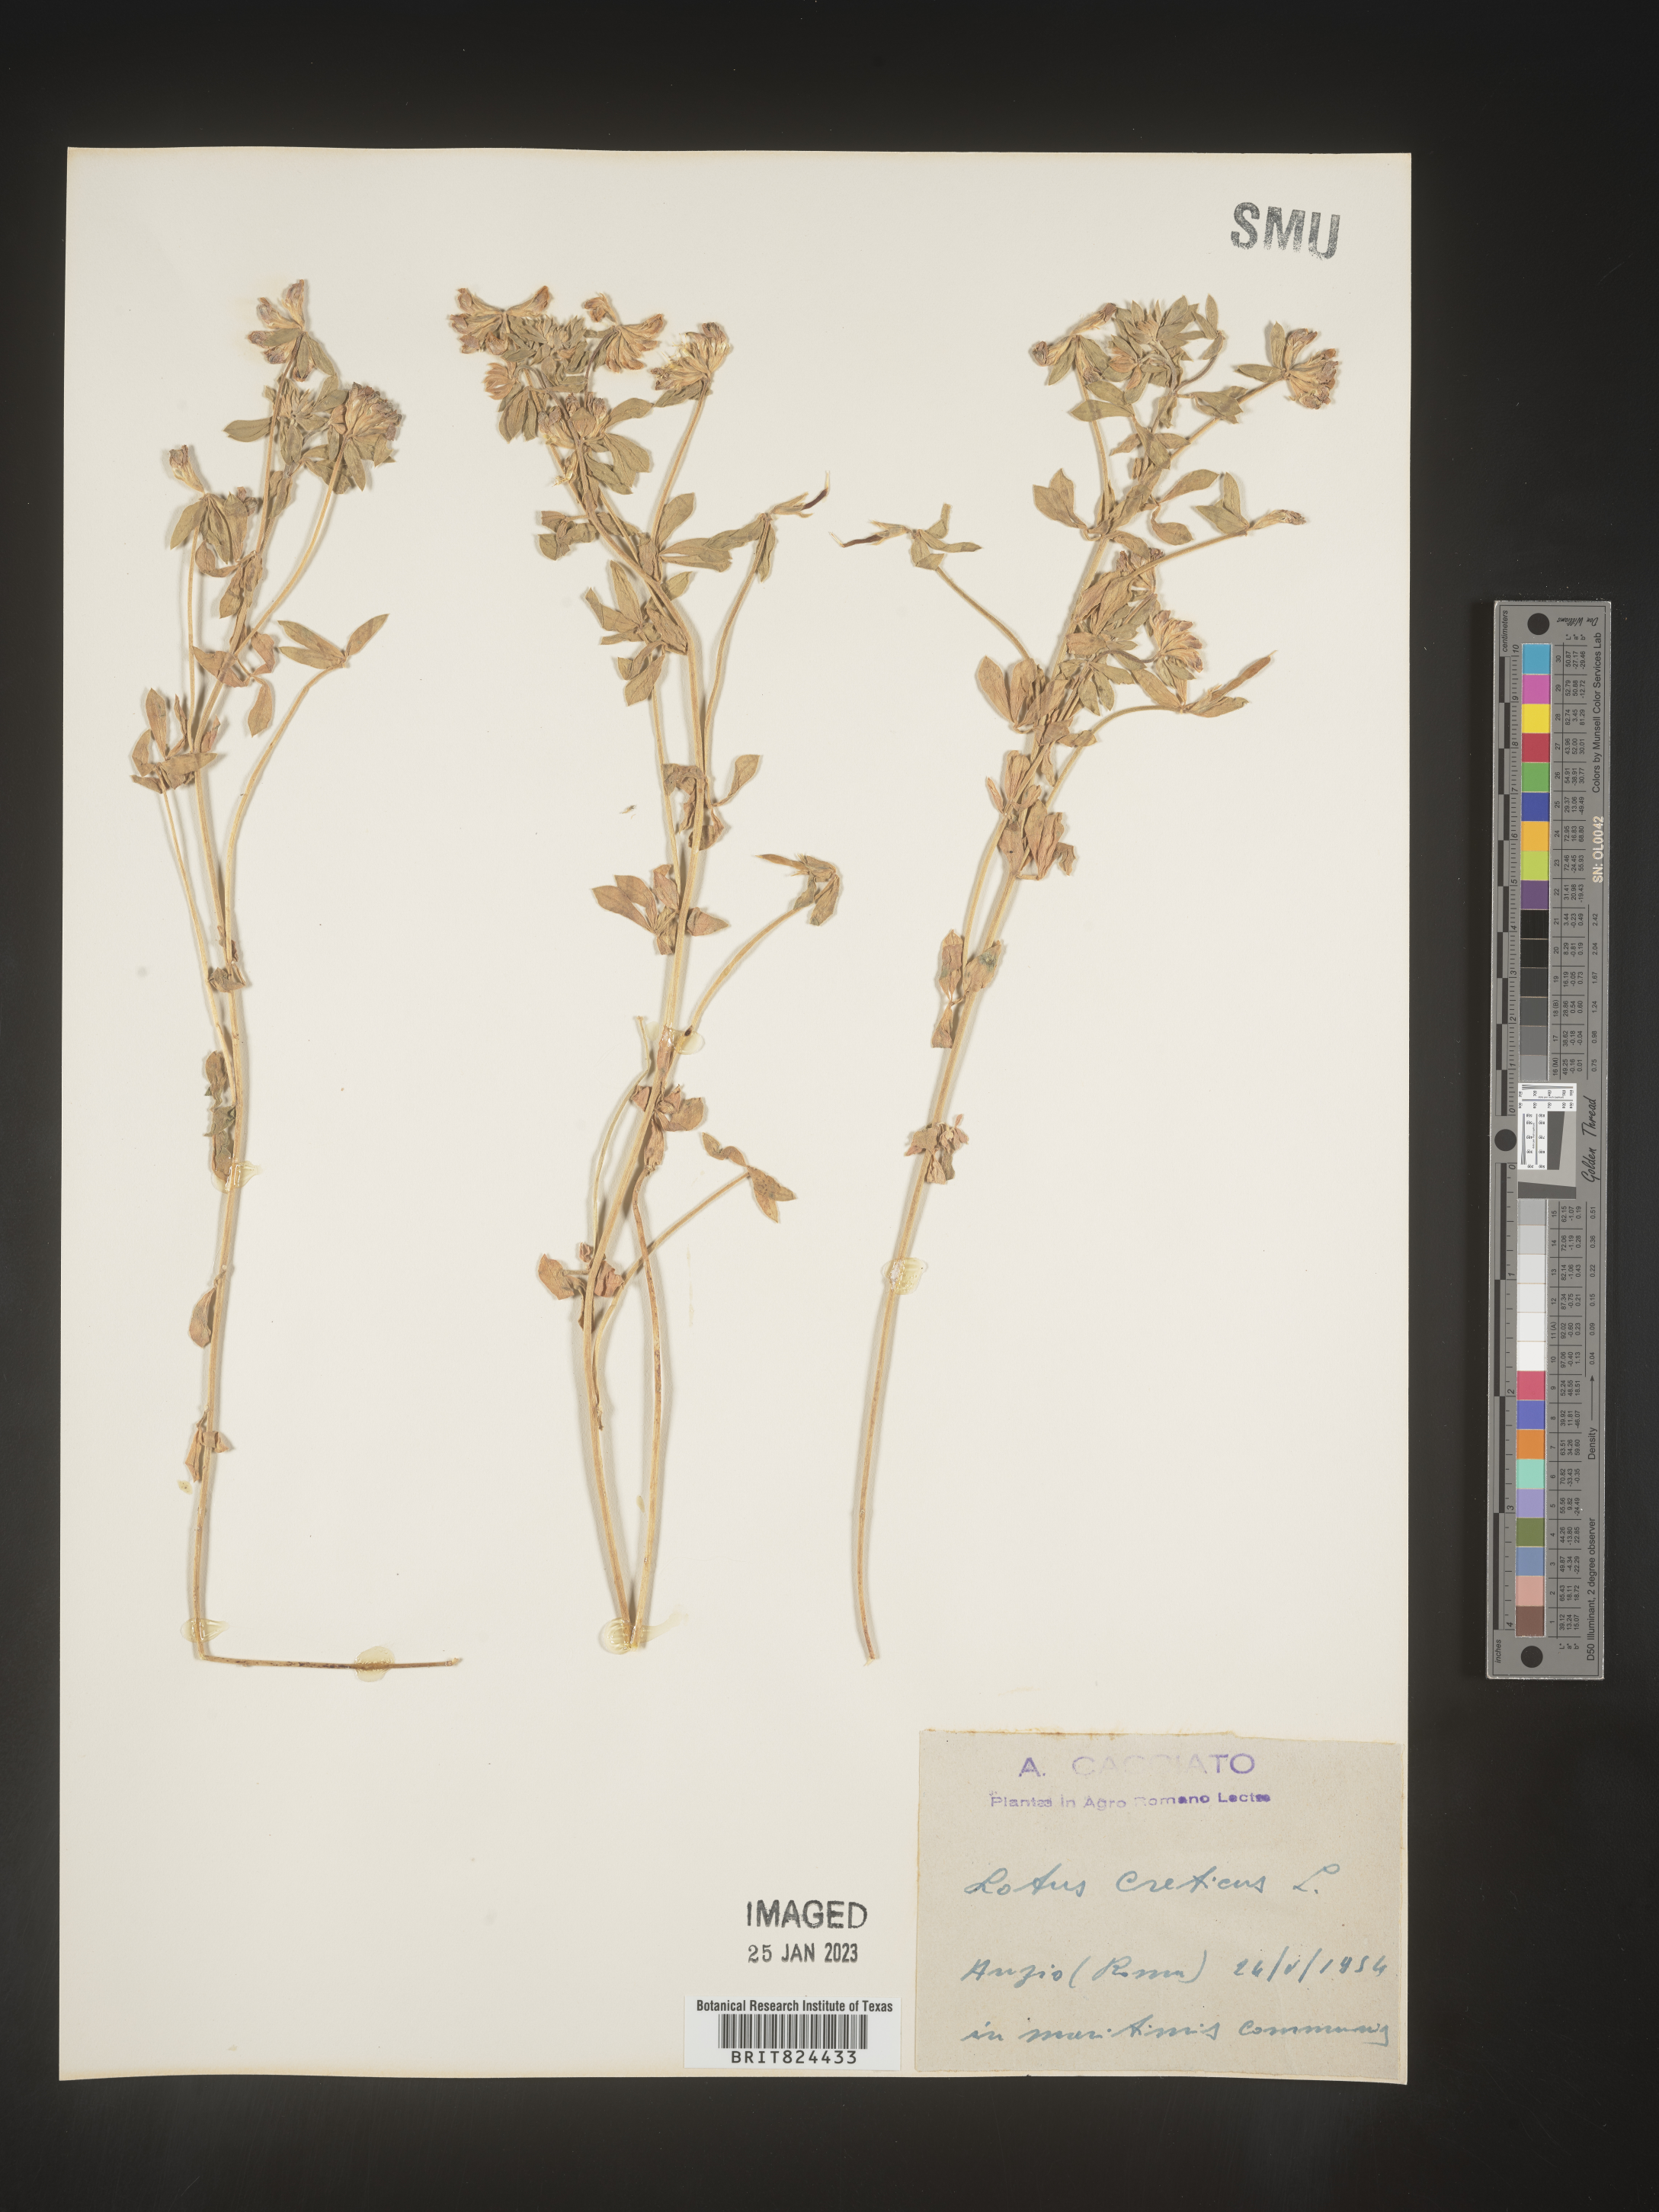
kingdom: Plantae
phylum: Tracheophyta
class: Magnoliopsida
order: Fabales
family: Fabaceae
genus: Lotus
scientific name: Lotus
